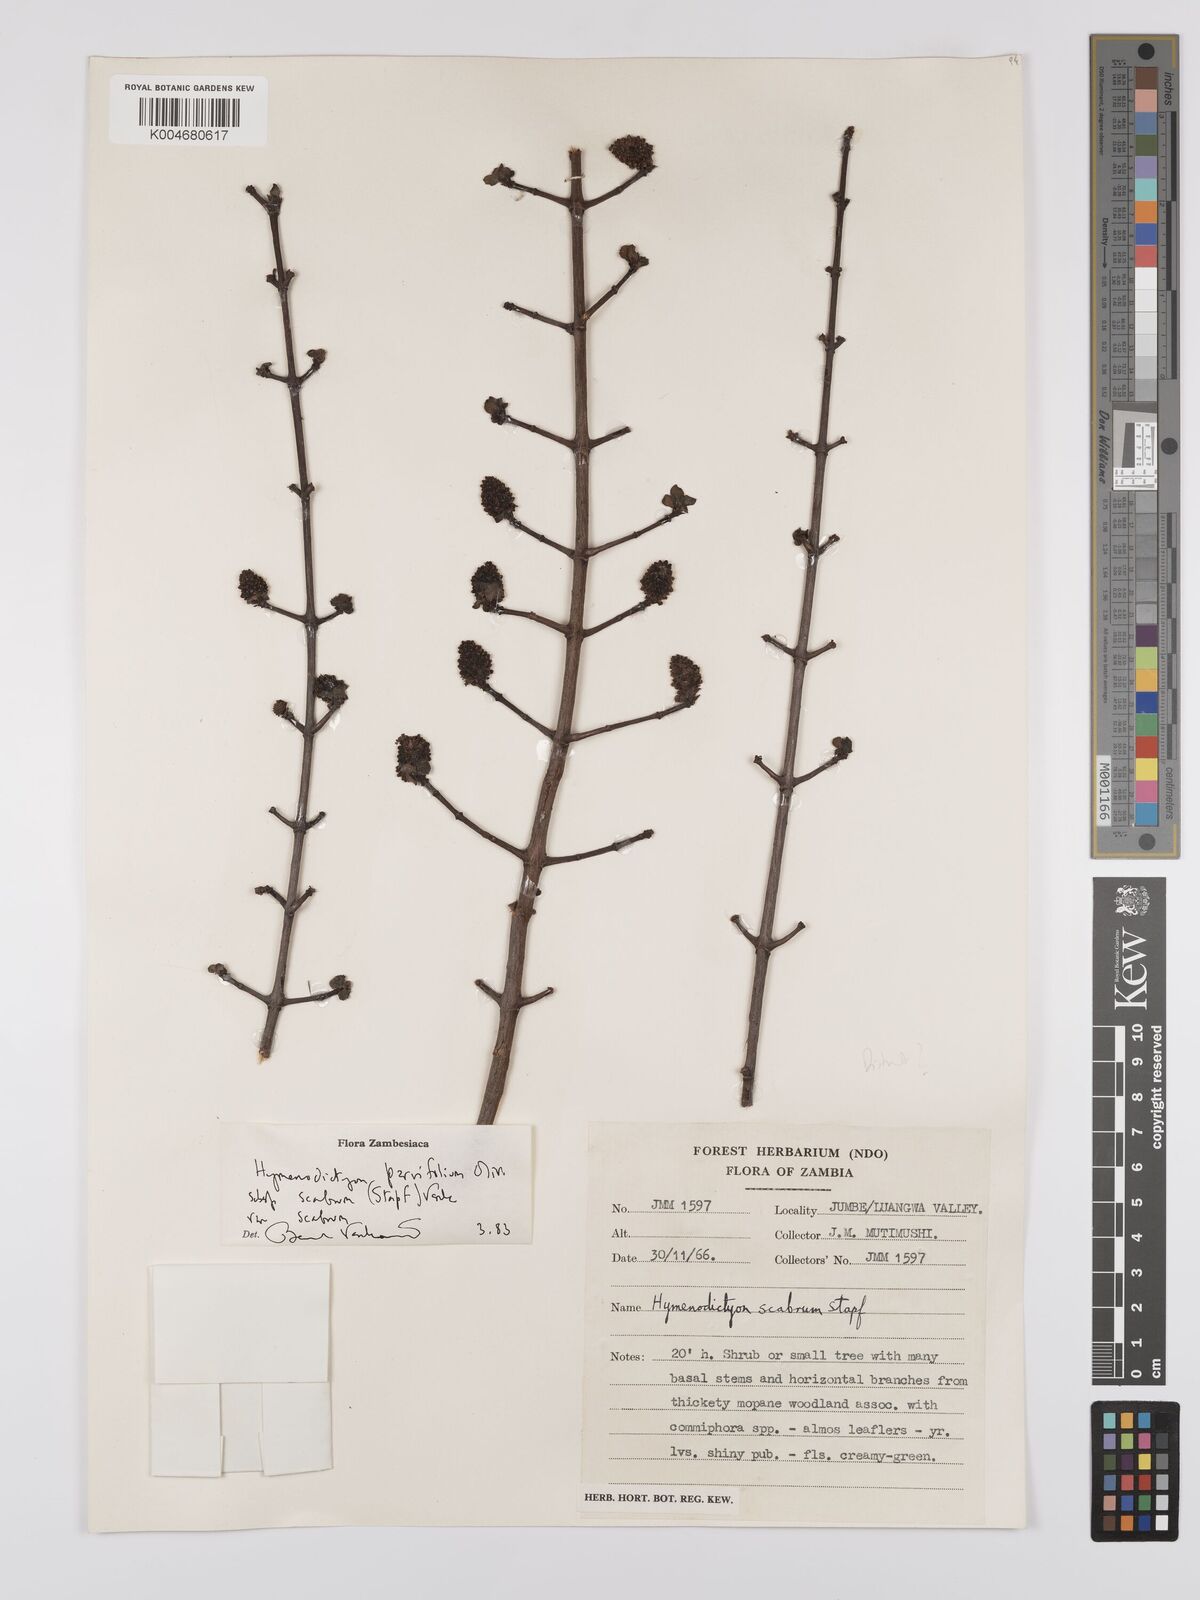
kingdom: Plantae
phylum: Tracheophyta
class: Magnoliopsida
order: Gentianales
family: Rubiaceae
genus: Hymenodictyon
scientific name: Hymenodictyon scabrum
